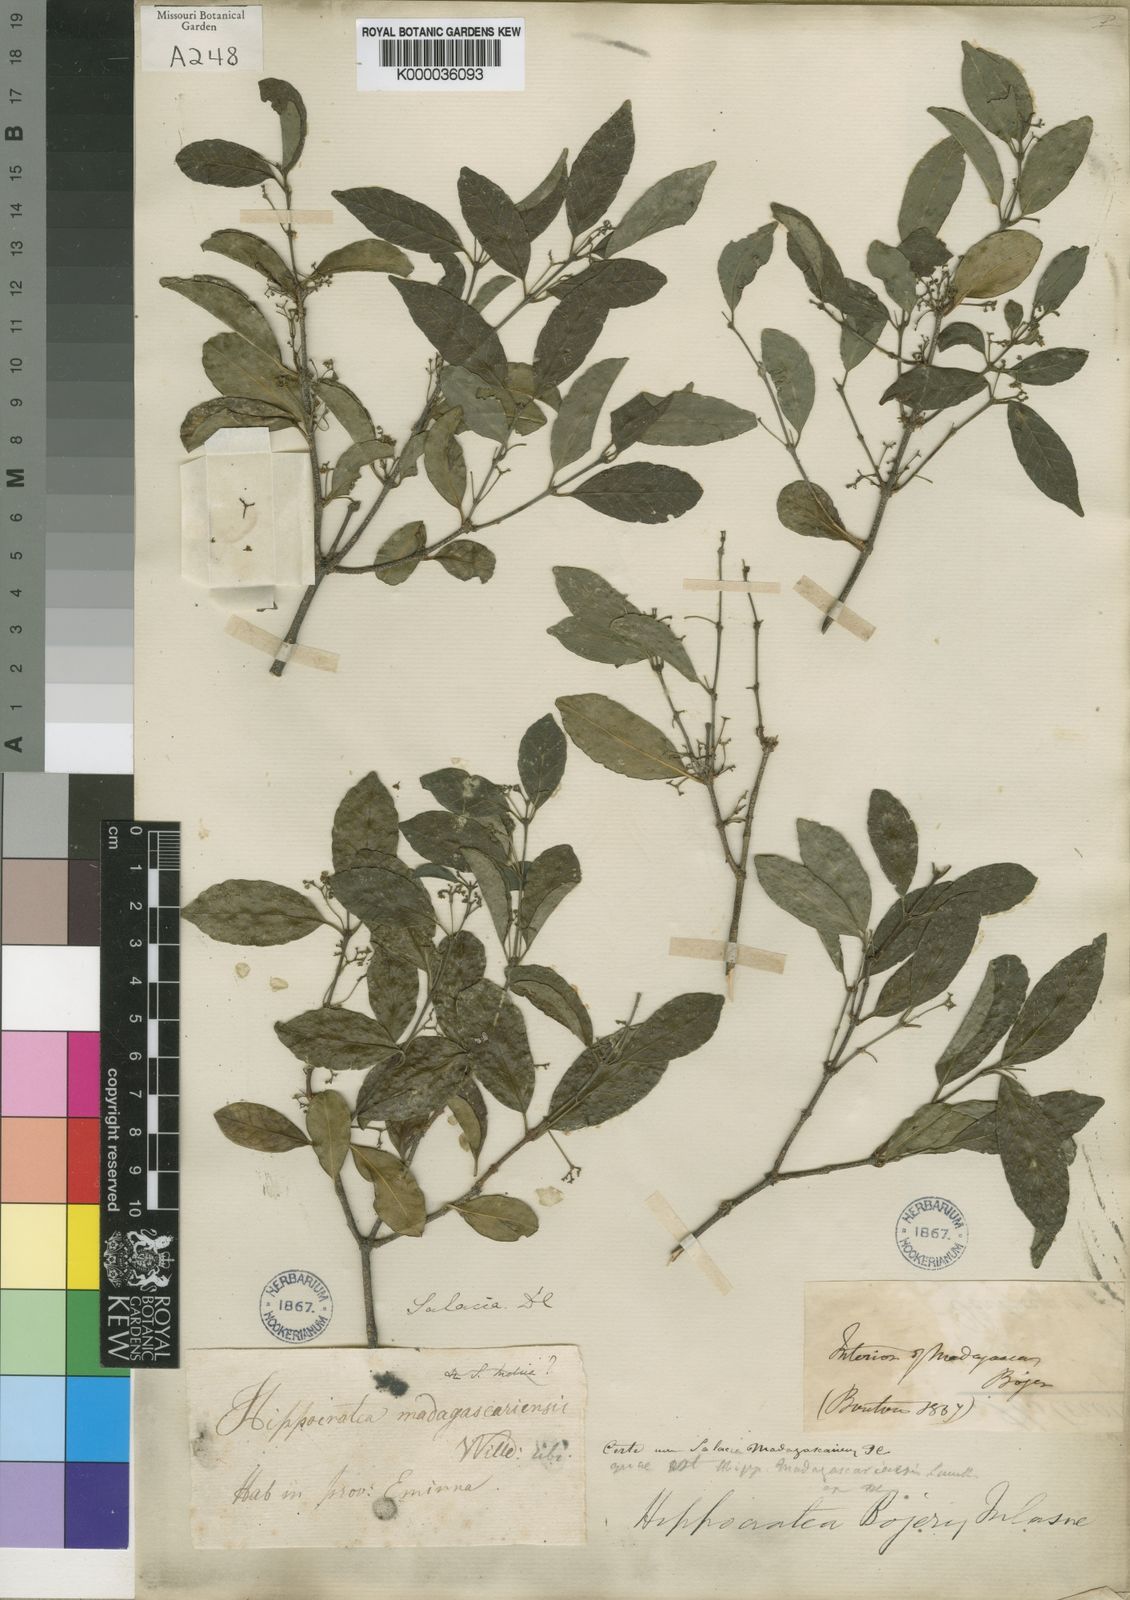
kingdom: Plantae
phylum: Tracheophyta
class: Magnoliopsida
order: Celastrales
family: Celastraceae
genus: Pristimera
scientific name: Pristimera bojeri
